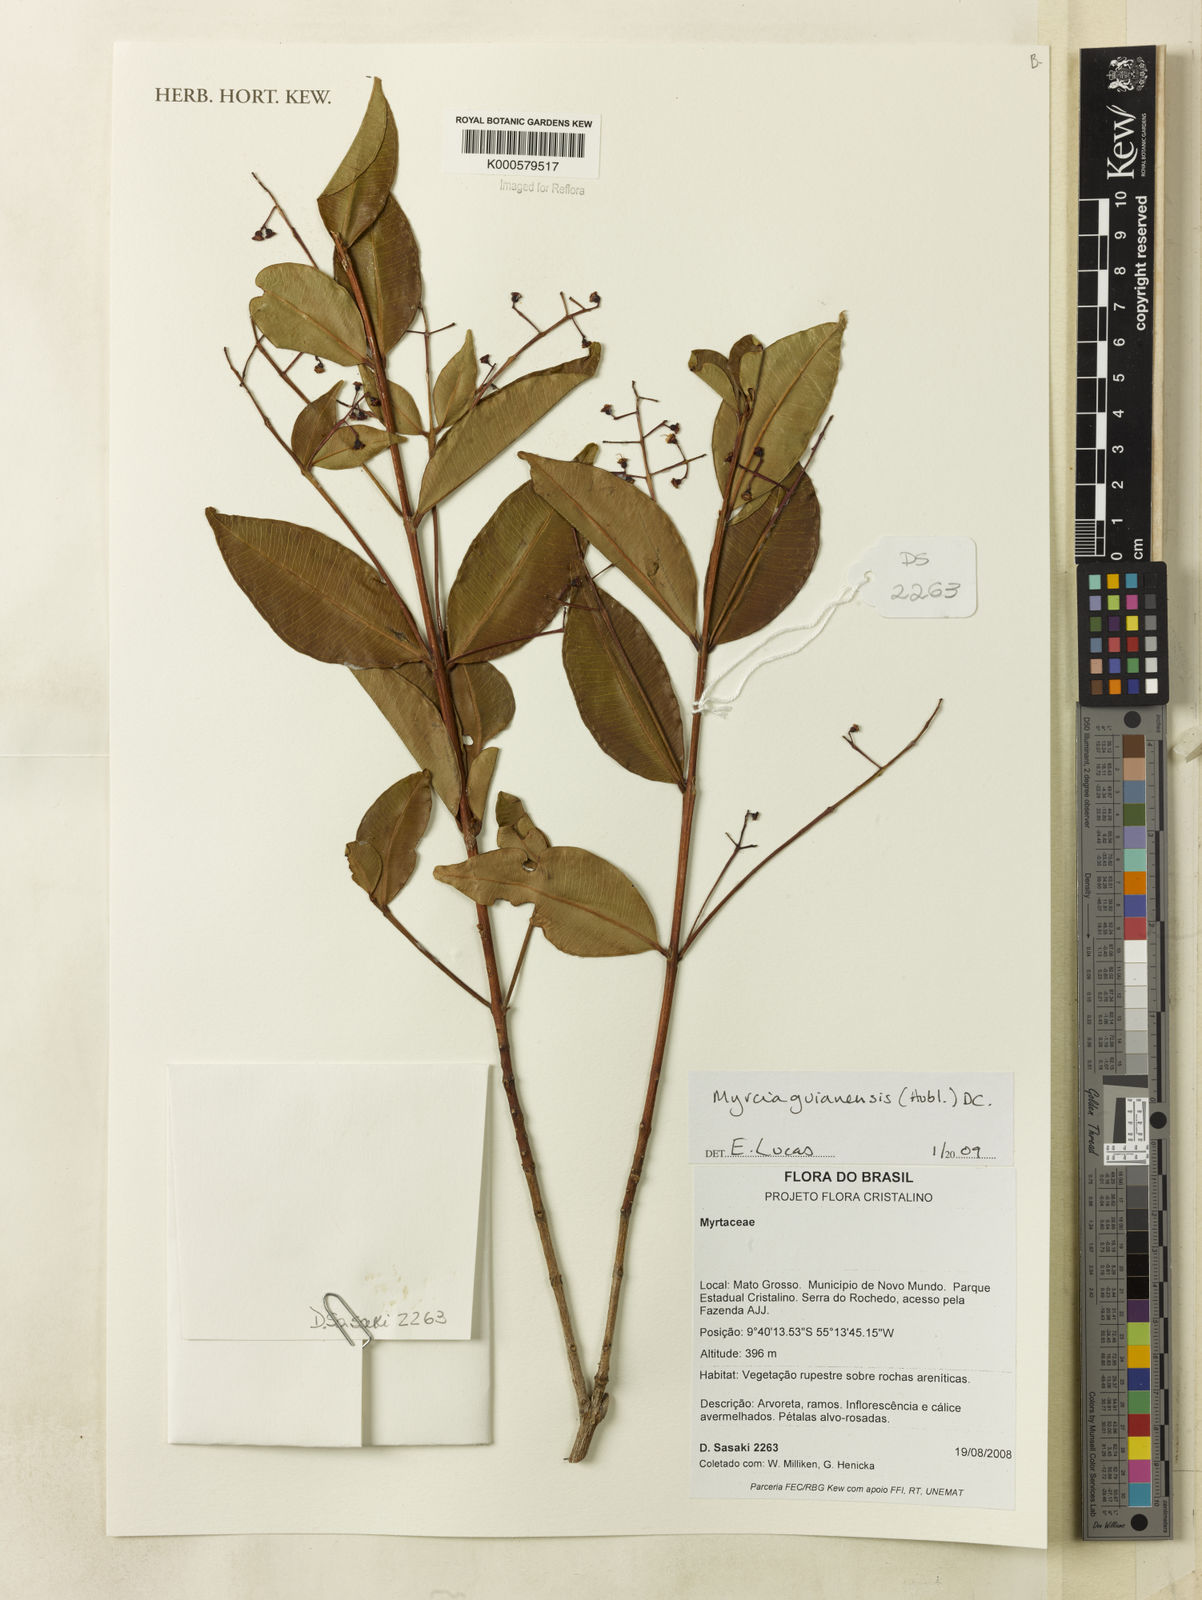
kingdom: Plantae
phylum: Tracheophyta
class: Magnoliopsida
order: Myrtales
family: Myrtaceae
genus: Myrcia
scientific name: Myrcia guianensis
